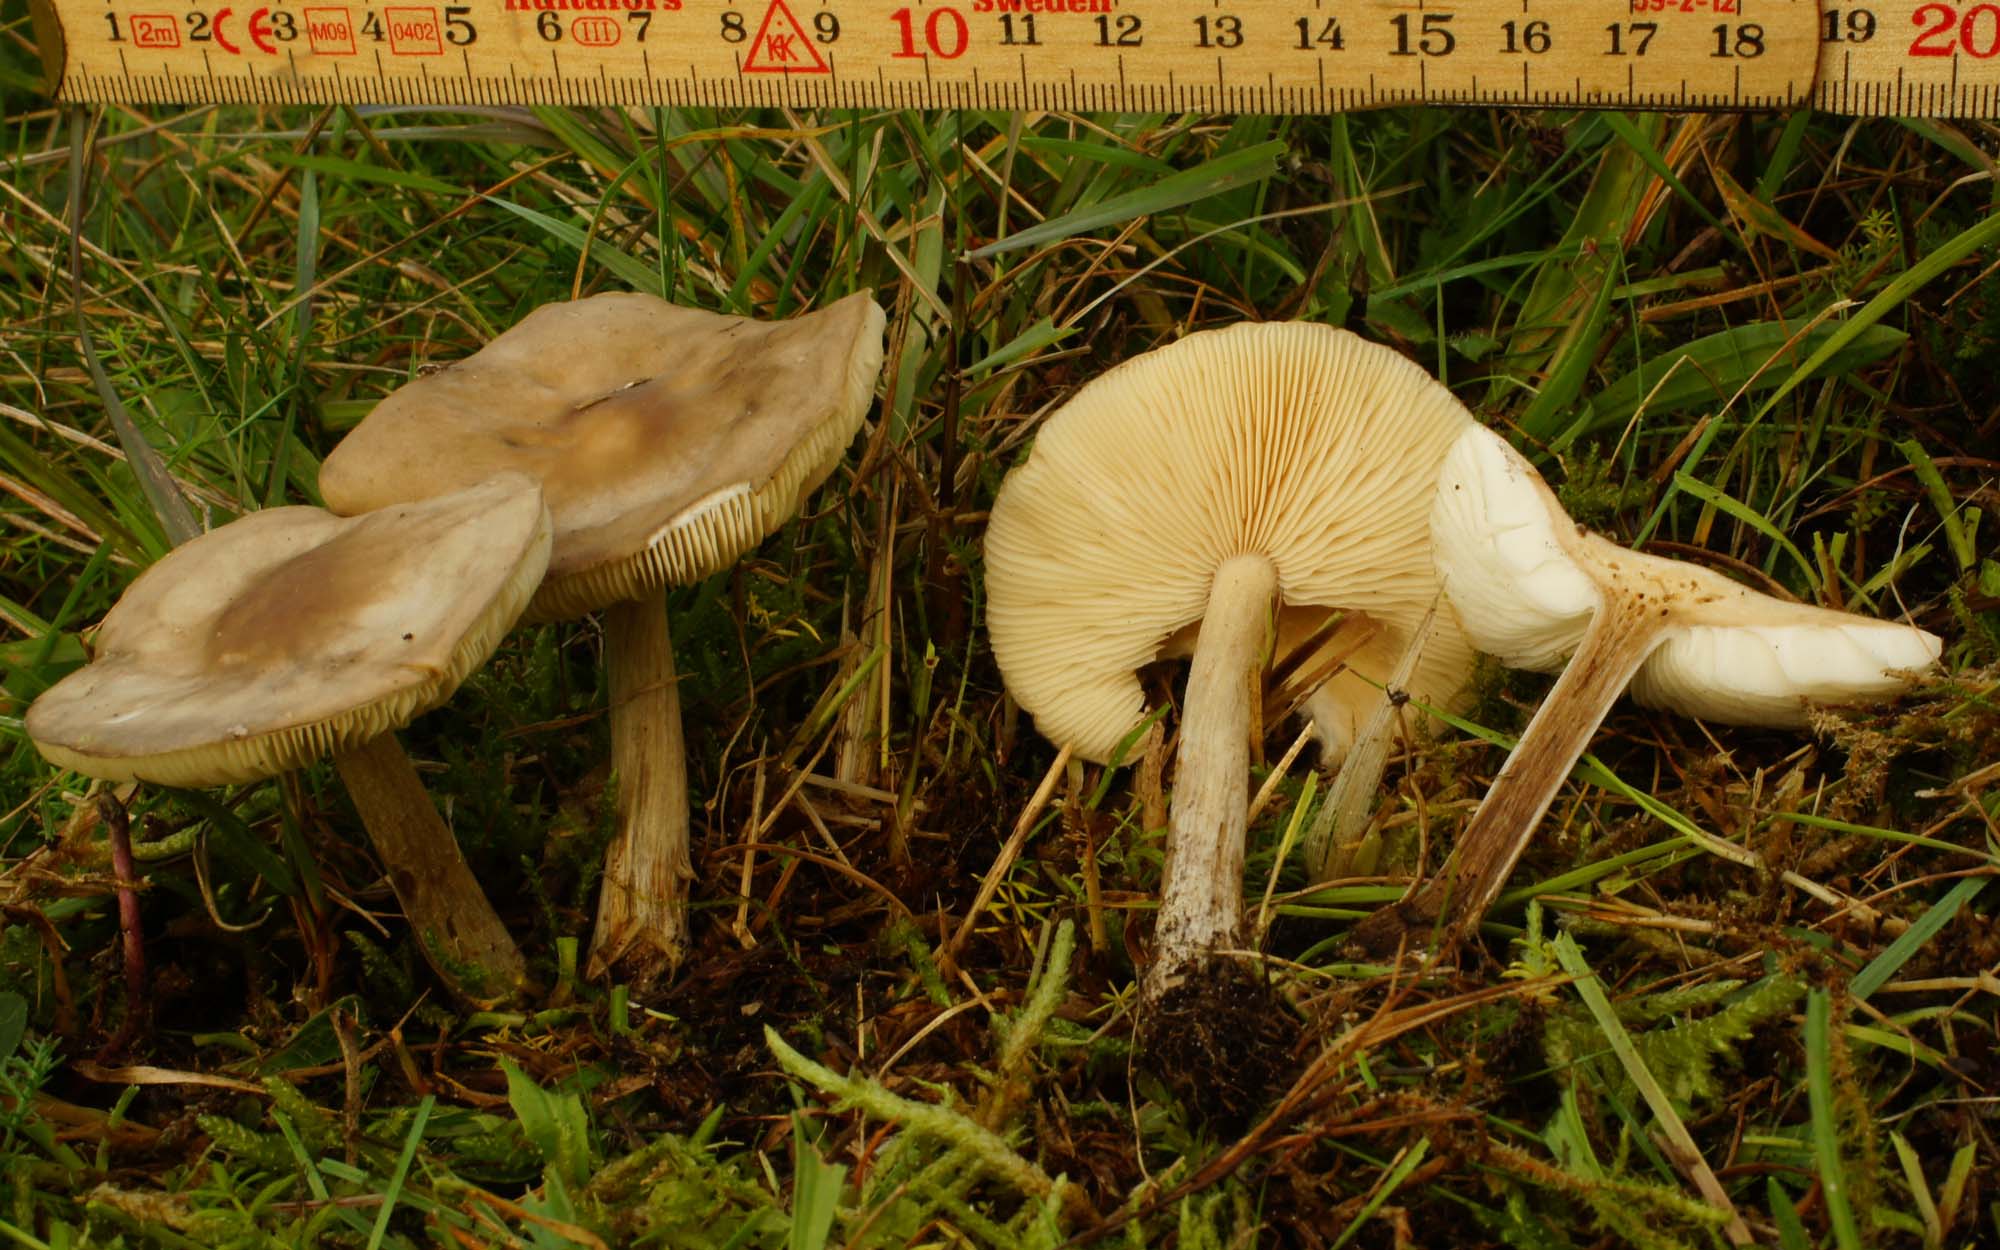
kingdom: Fungi
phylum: Basidiomycota
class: Agaricomycetes
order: Agaricales
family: Tricholomataceae
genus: Melanoleuca
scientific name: Melanoleuca
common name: munkehat
